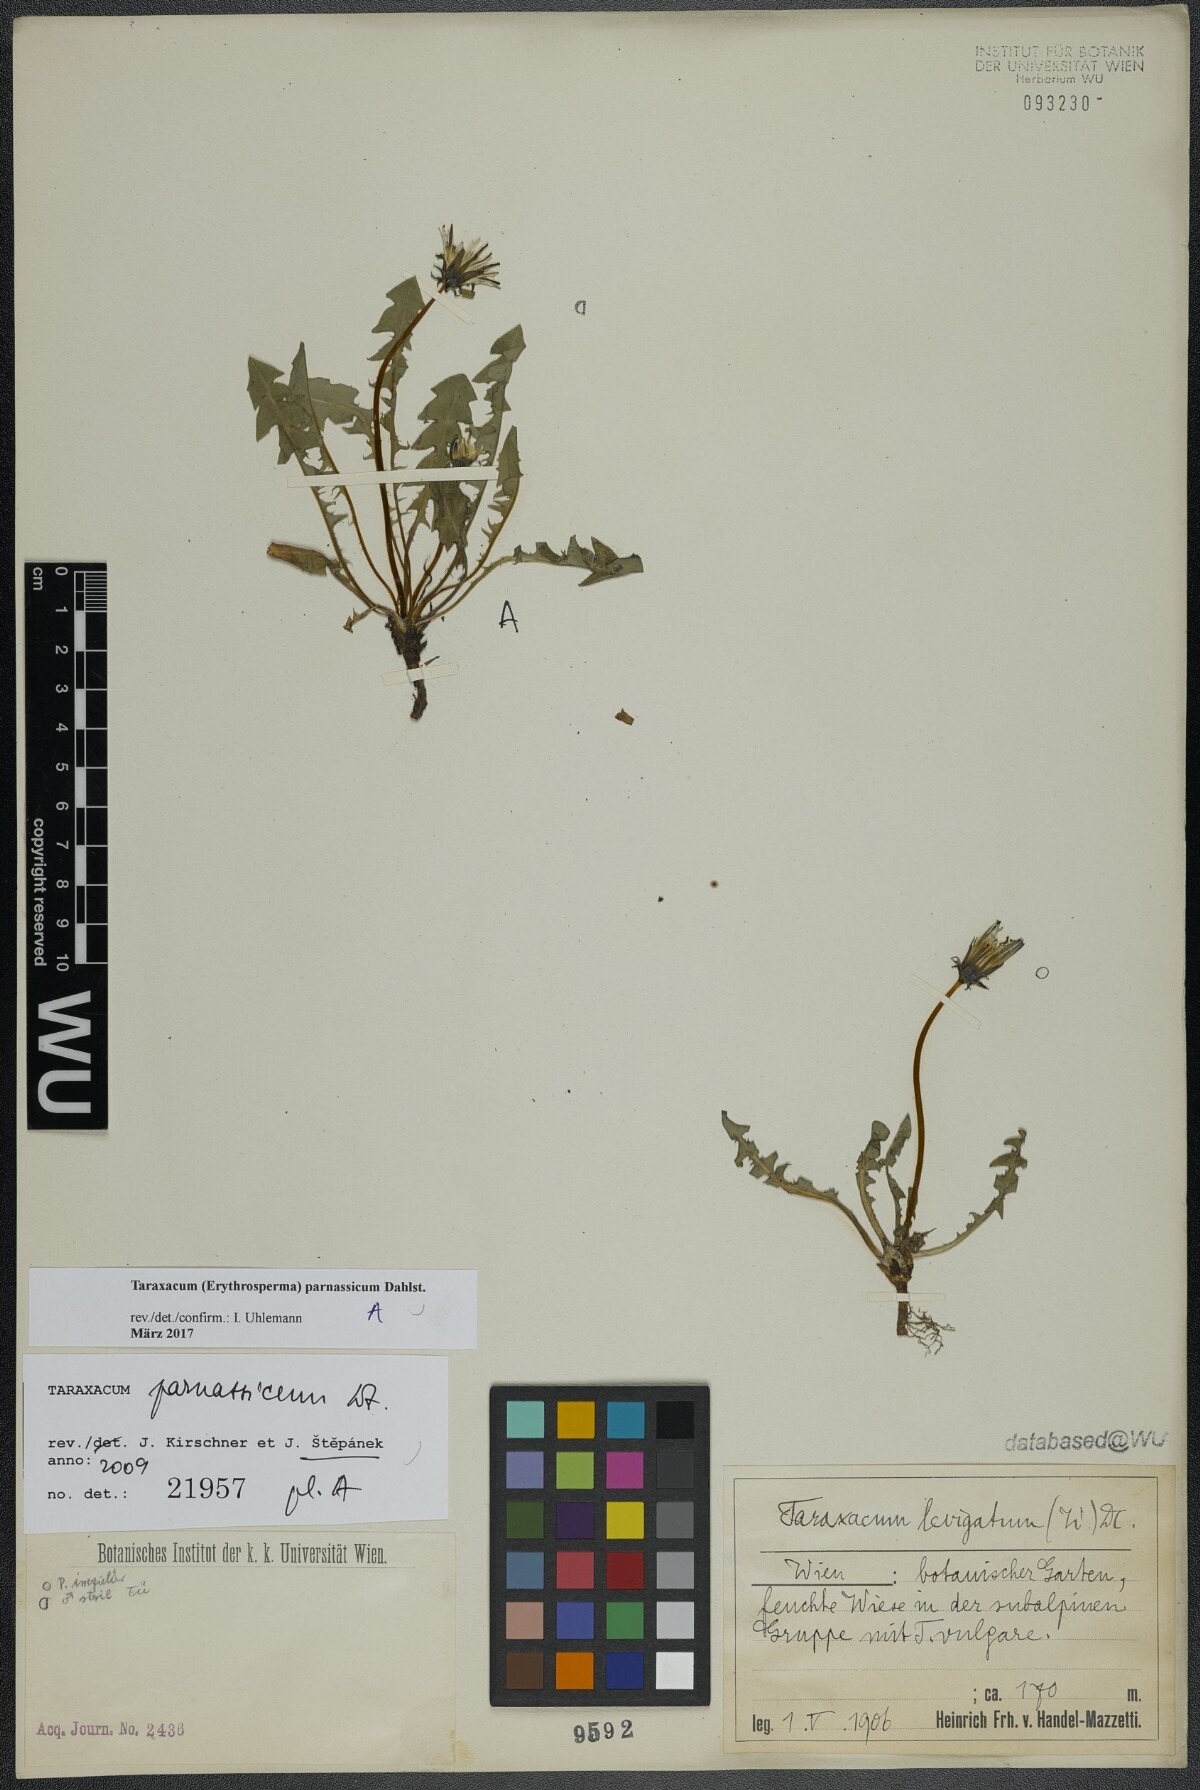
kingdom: Plantae
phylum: Tracheophyta
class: Magnoliopsida
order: Asterales
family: Asteraceae
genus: Taraxacum
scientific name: Taraxacum parnassicum
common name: Parnassus dandelion
